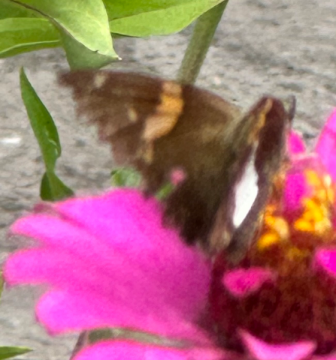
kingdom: Animalia
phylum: Arthropoda
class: Insecta
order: Lepidoptera
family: Hesperiidae
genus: Epargyreus
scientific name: Epargyreus clarus
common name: Silver-spotted Skipper
